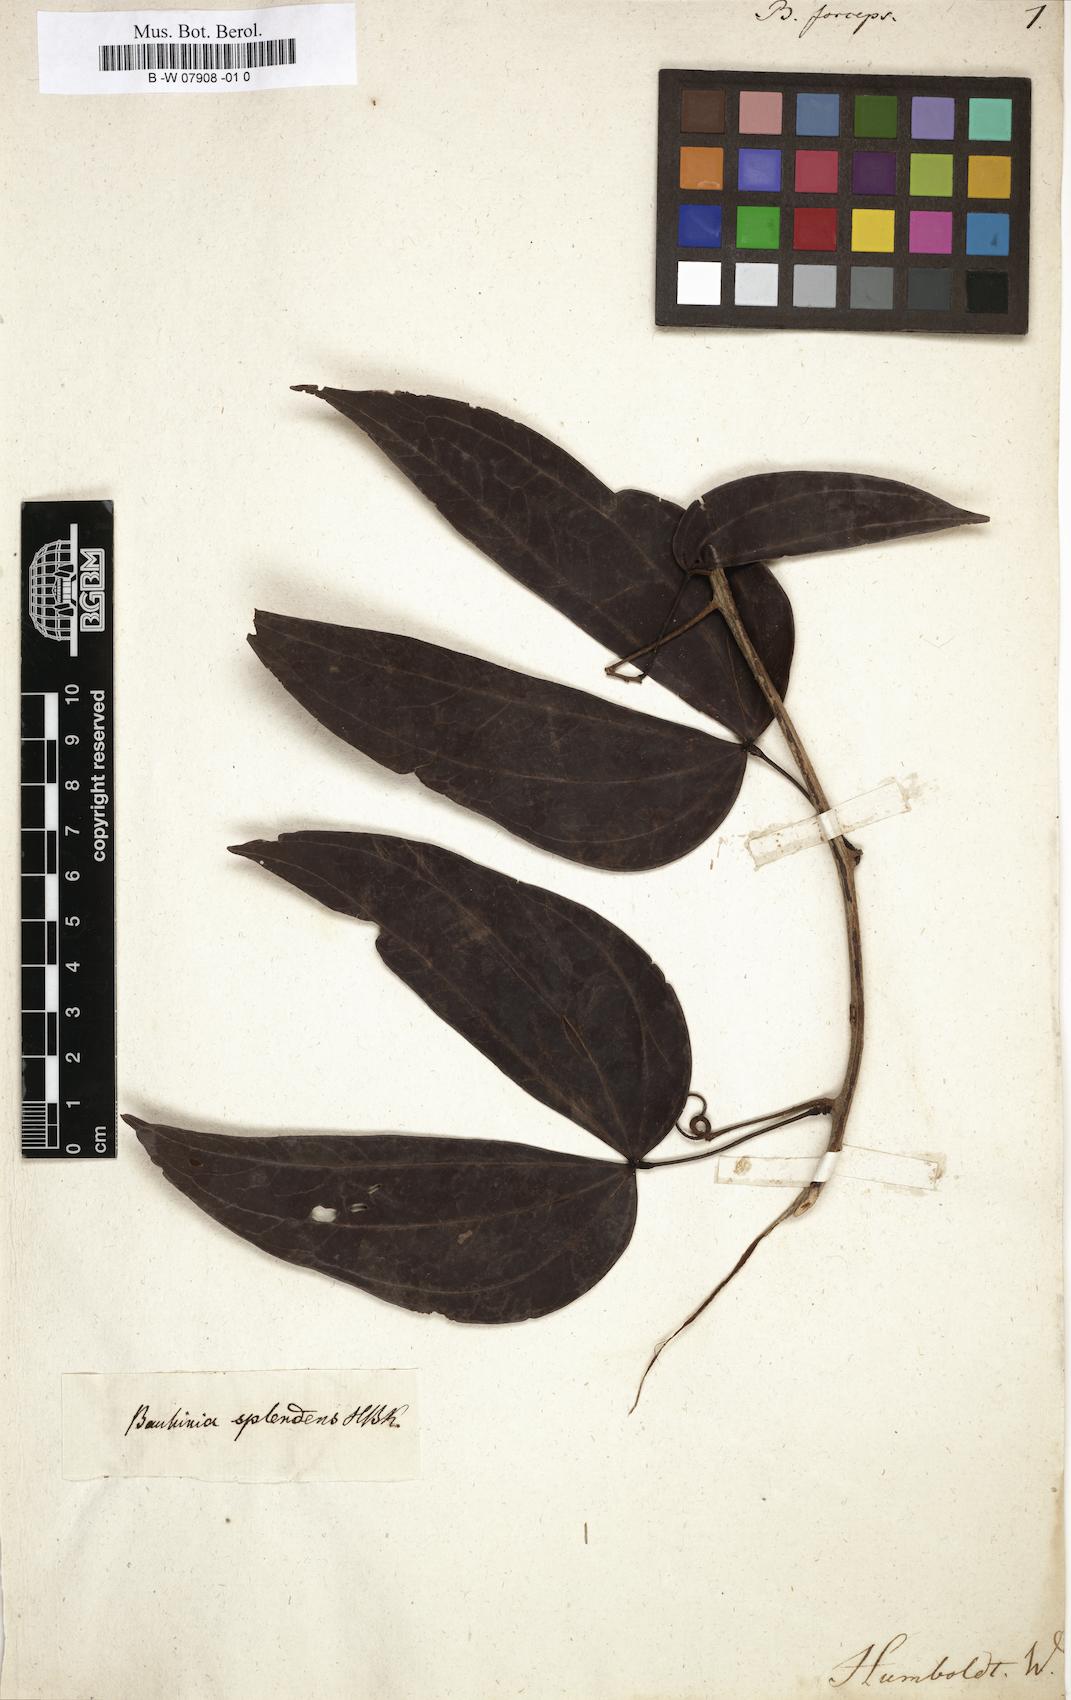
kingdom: Plantae
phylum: Tracheophyta
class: Magnoliopsida
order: Fabales
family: Fabaceae
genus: Bauhinia
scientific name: Bauhinia
